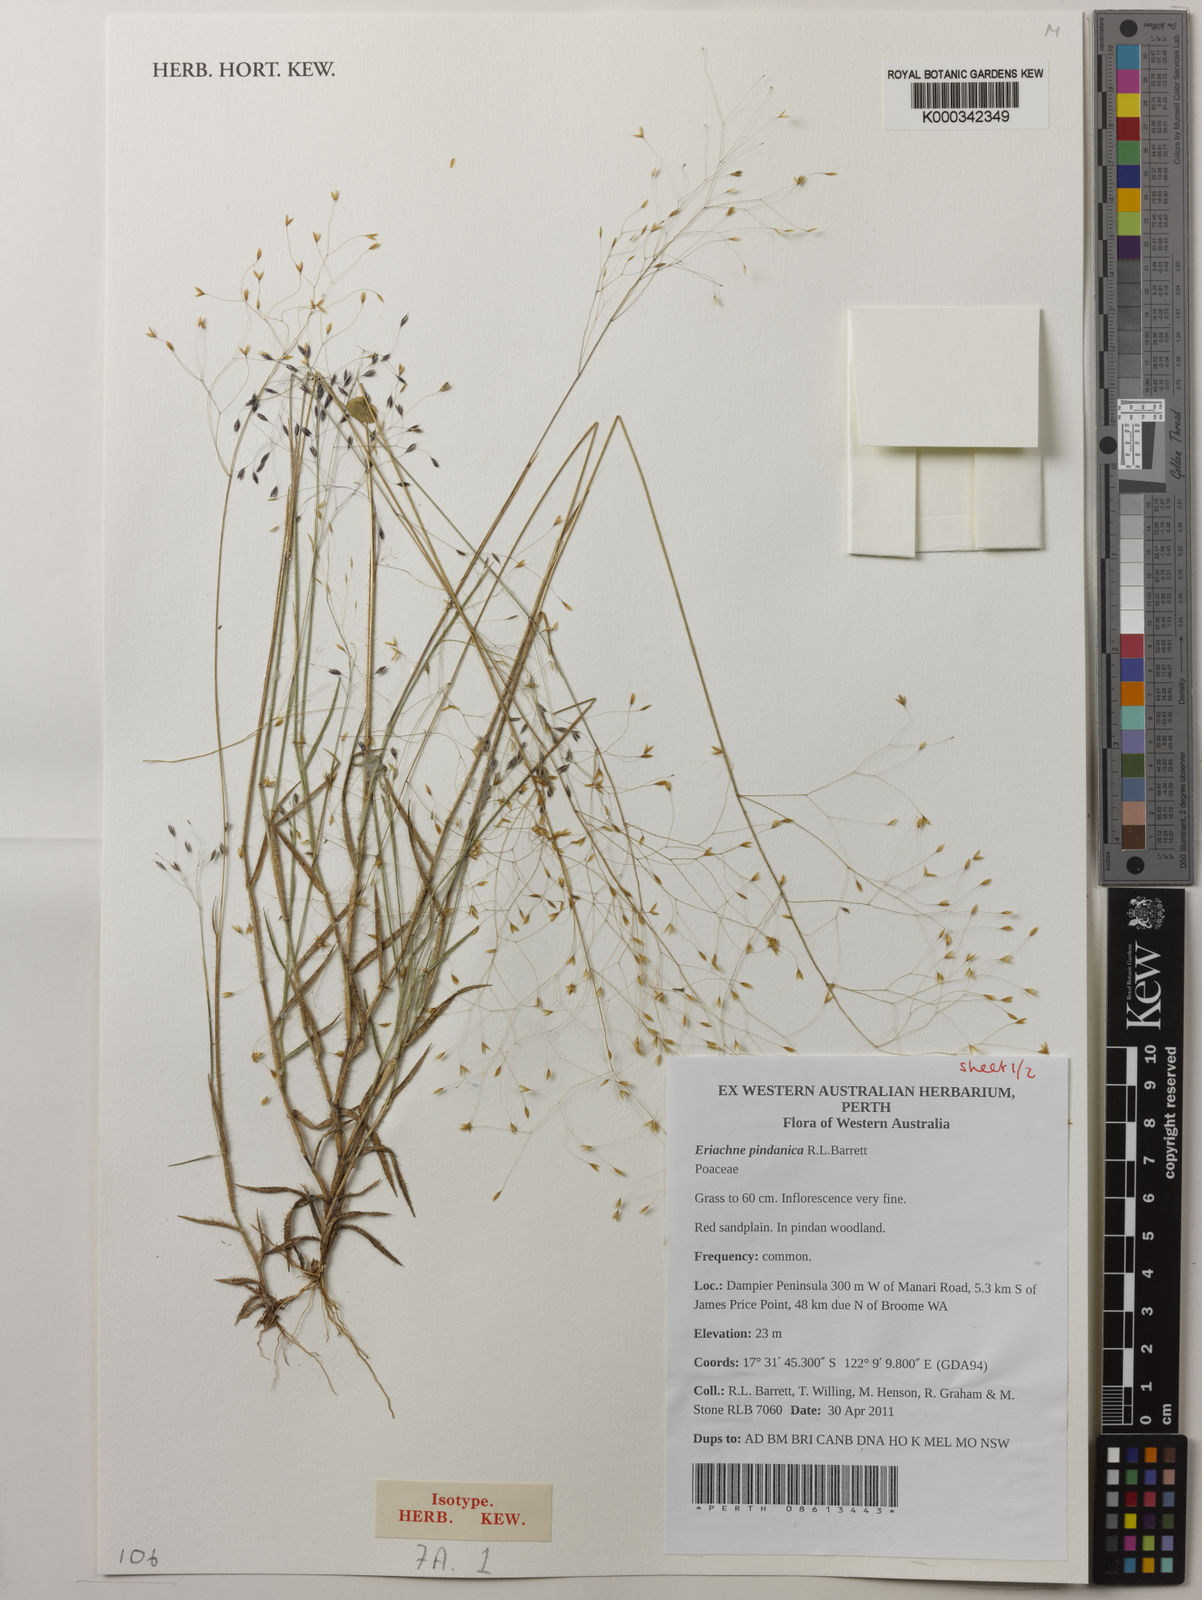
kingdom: Plantae
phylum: Tracheophyta
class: Liliopsida
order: Poales
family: Poaceae
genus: Eriachne
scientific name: Eriachne pindanica
